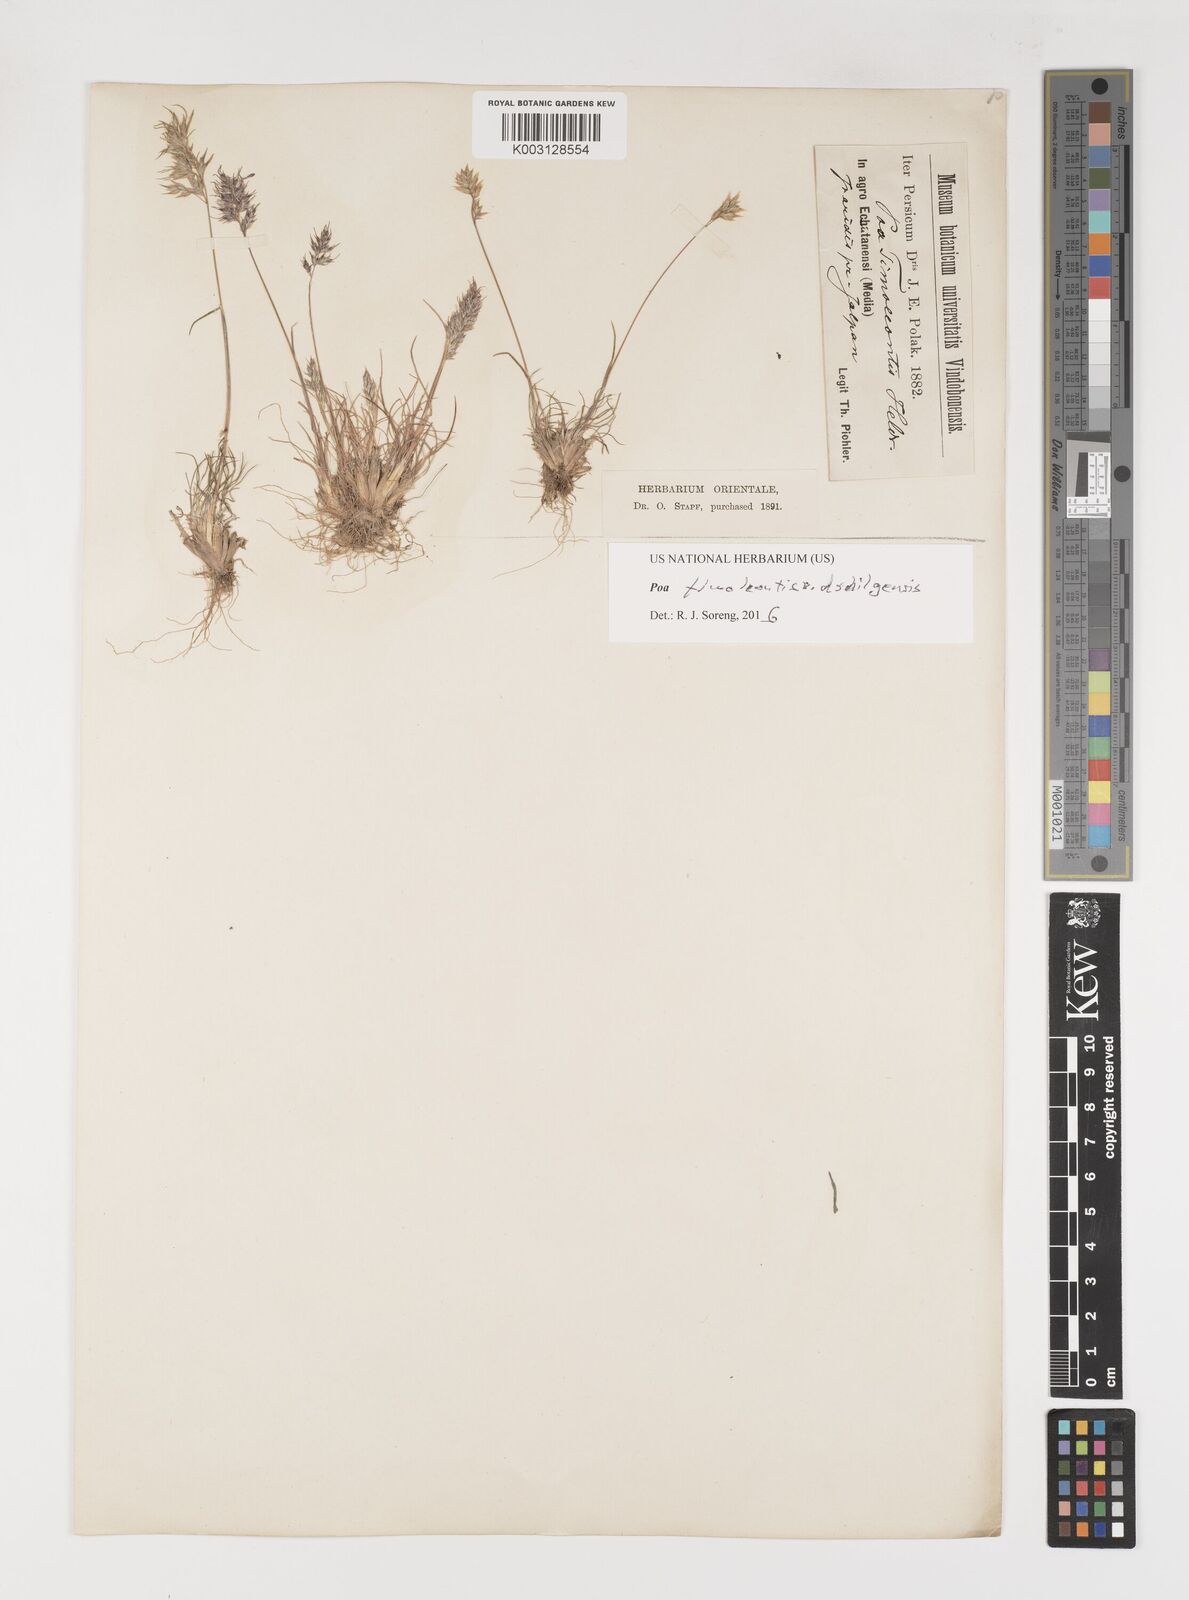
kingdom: Plantae
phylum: Tracheophyta
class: Liliopsida
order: Poales
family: Poaceae
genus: Poa
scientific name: Poa timoleontis
